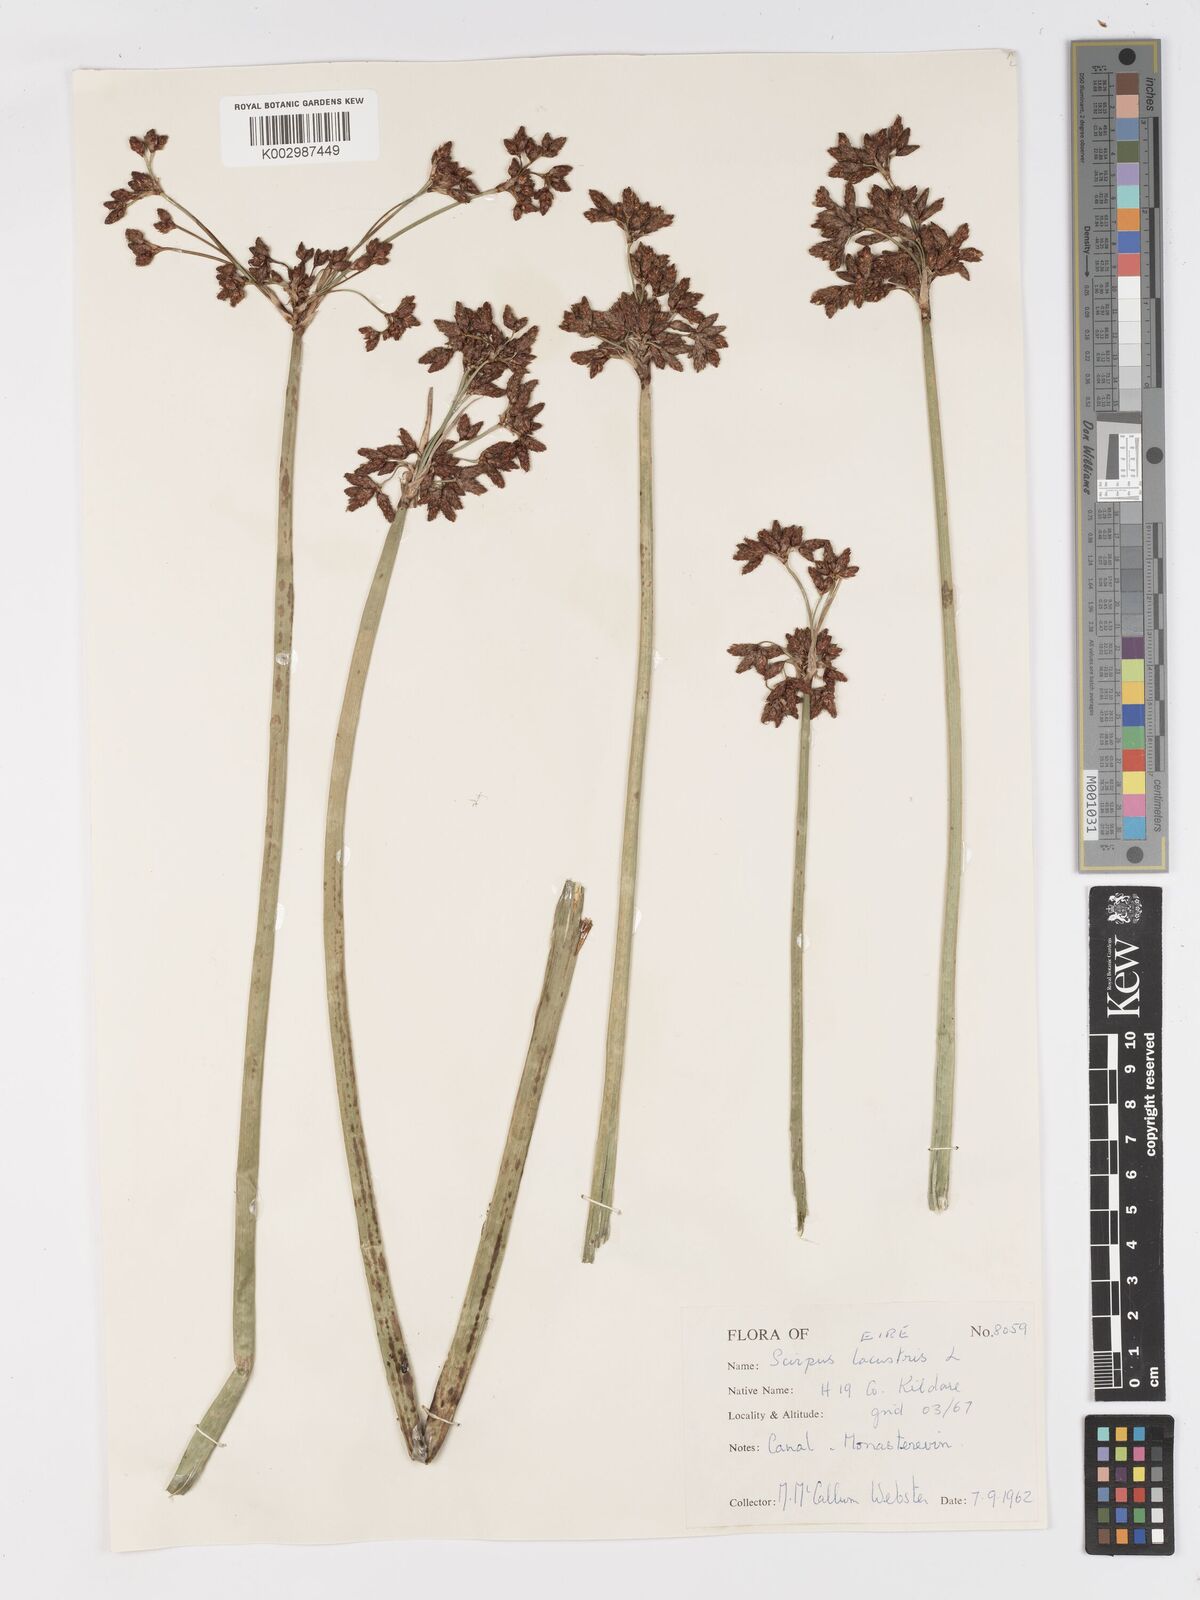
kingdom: Plantae
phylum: Tracheophyta
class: Liliopsida
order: Poales
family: Cyperaceae
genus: Schoenoplectus
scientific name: Schoenoplectus lacustris
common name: Common club-rush
